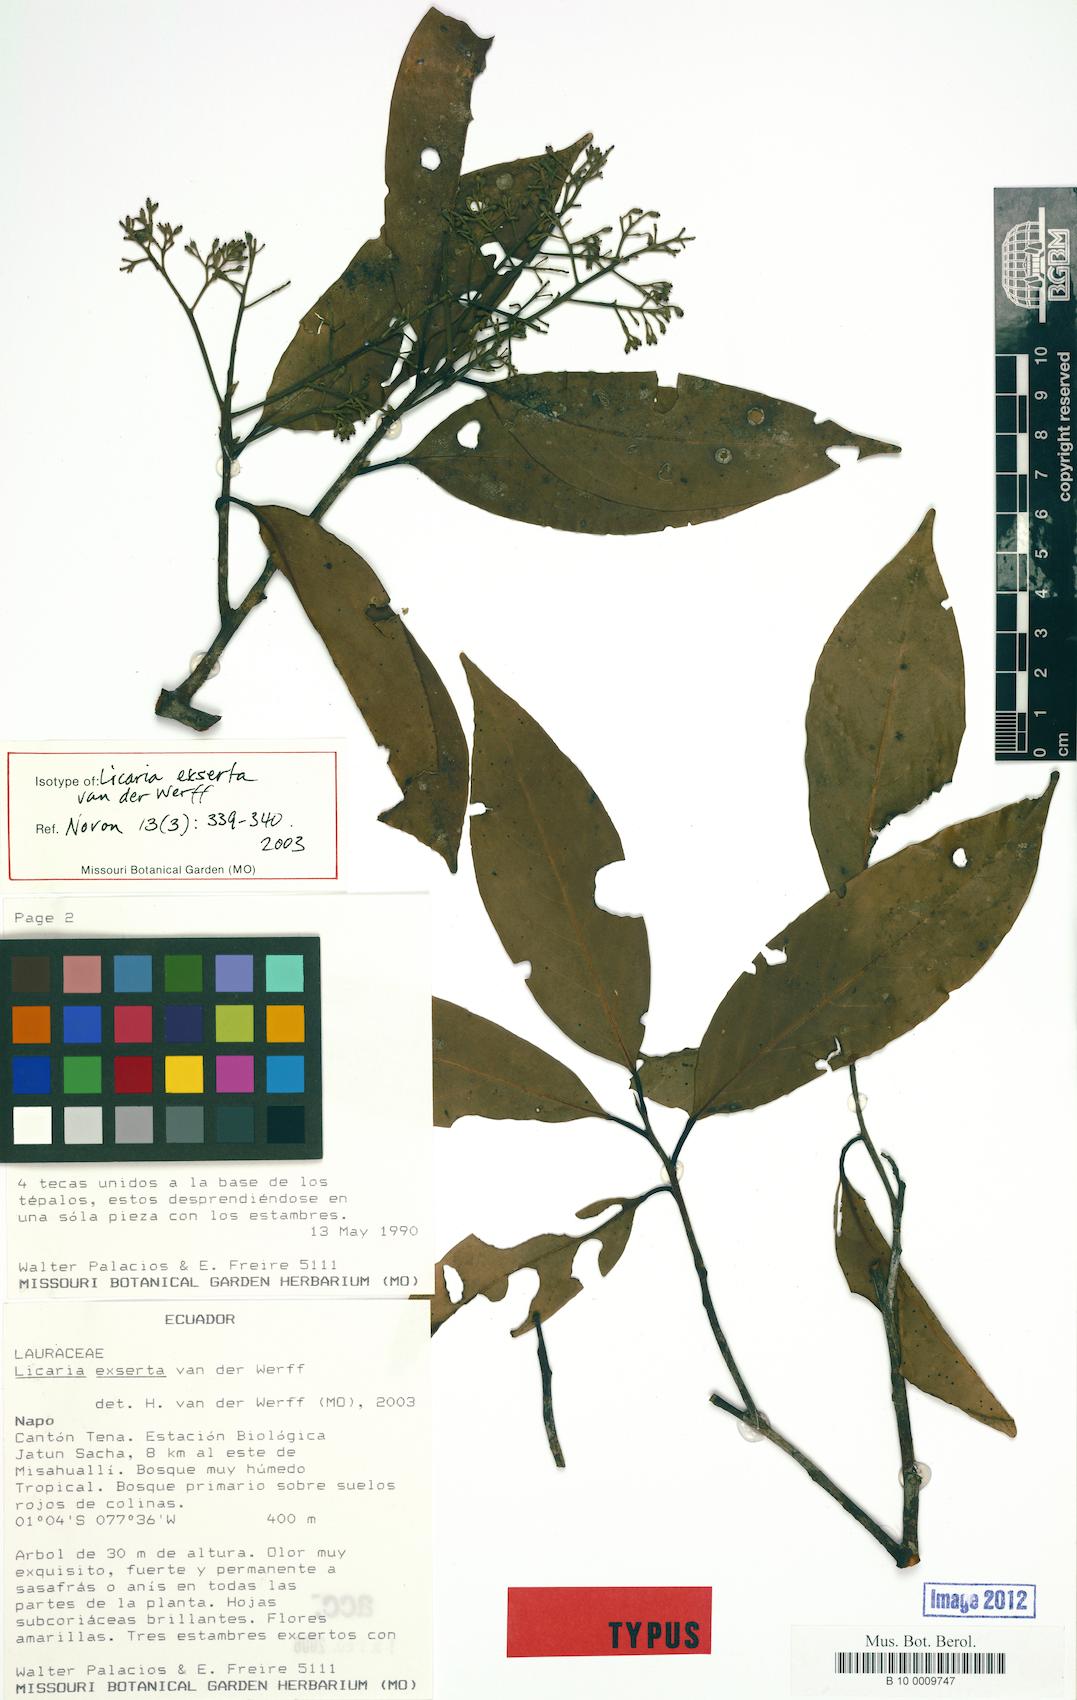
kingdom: Plantae
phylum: Tracheophyta
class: Magnoliopsida
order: Laurales
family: Lauraceae
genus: Licaria
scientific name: Licaria exserta
